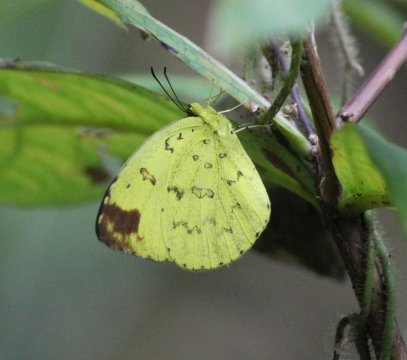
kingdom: Animalia
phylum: Arthropoda
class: Insecta
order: Lepidoptera
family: Pieridae
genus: Eurema
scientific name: Eurema blanda
